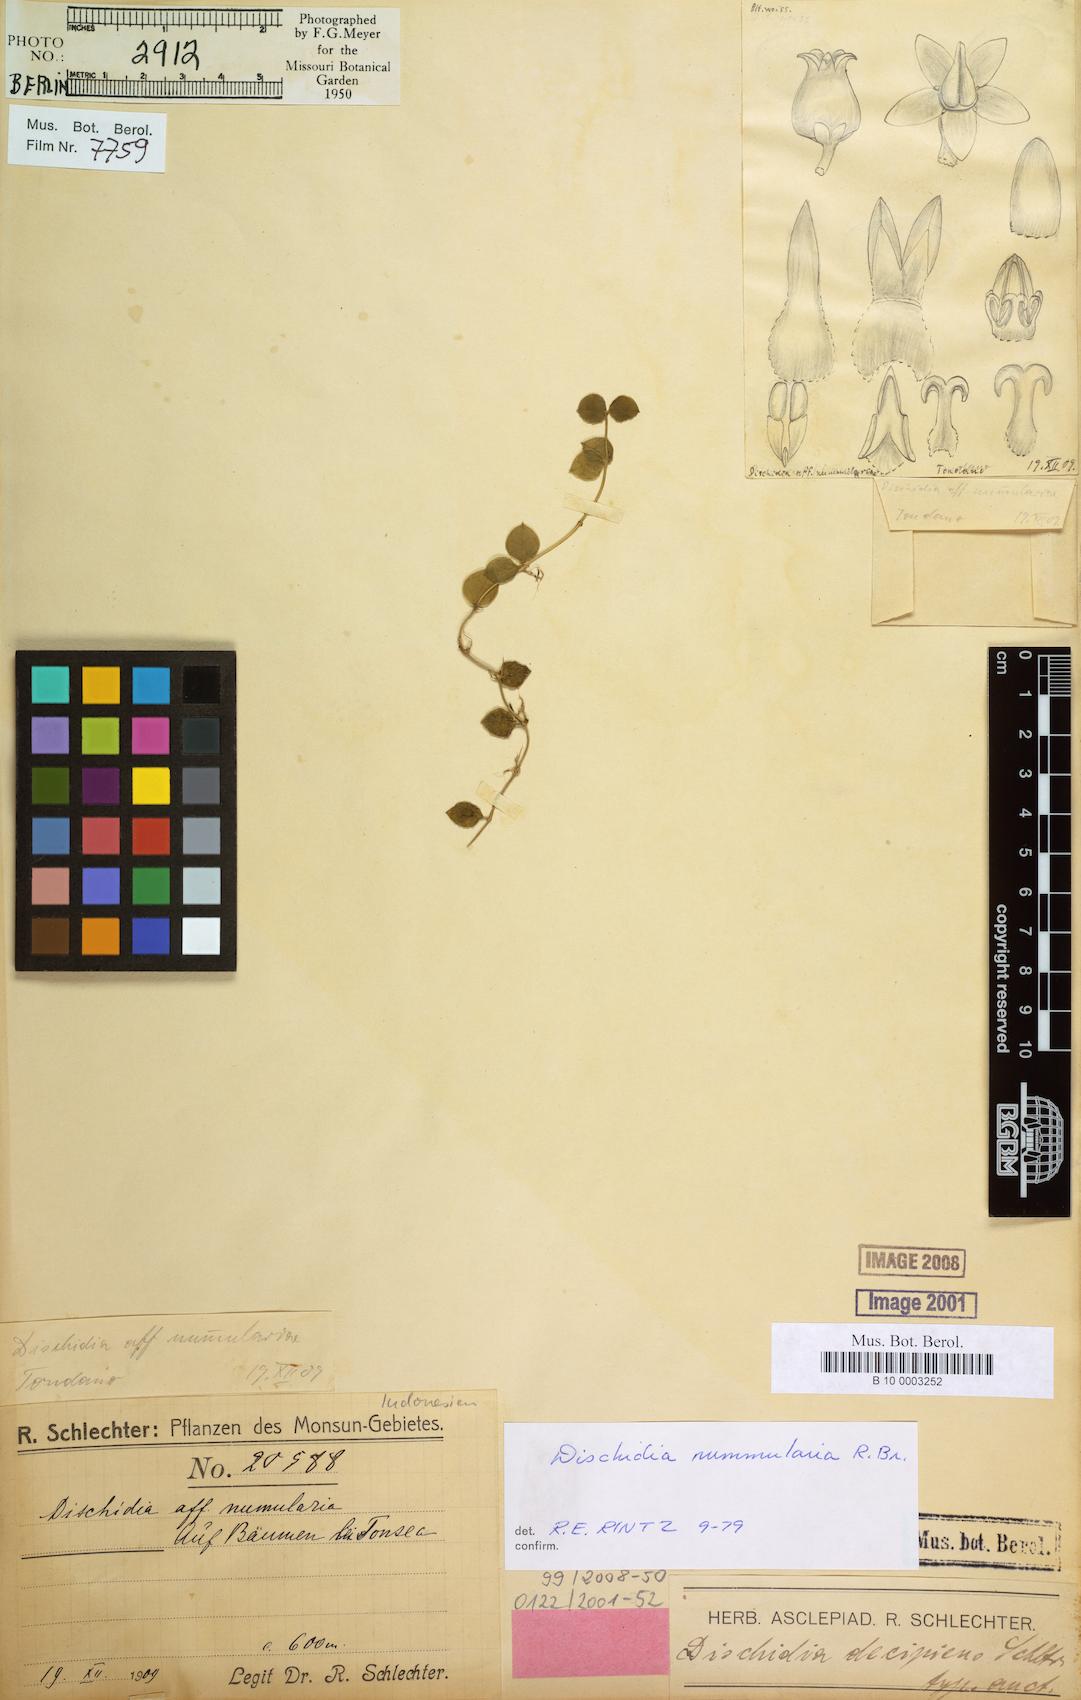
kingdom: Plantae
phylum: Tracheophyta
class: Magnoliopsida
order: Gentianales
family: Apocynaceae
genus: Dischidia
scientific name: Dischidia nummularia
